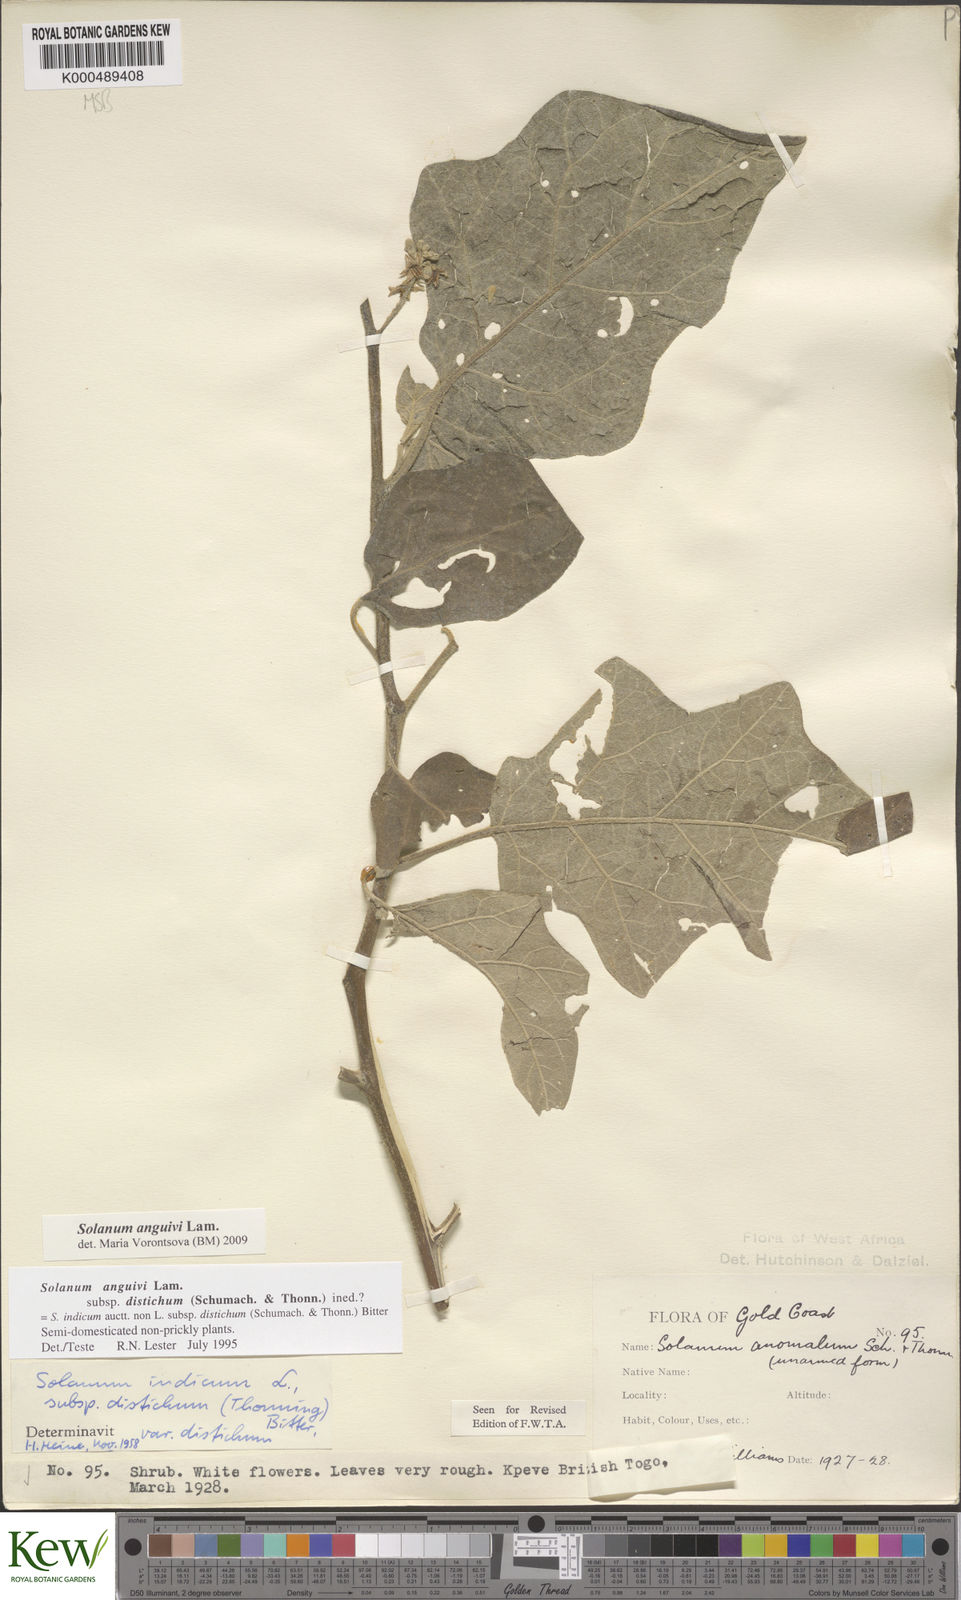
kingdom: Plantae
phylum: Tracheophyta
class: Magnoliopsida
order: Solanales
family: Solanaceae
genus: Solanum
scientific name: Solanum anguivi
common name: Forest bitterberry
